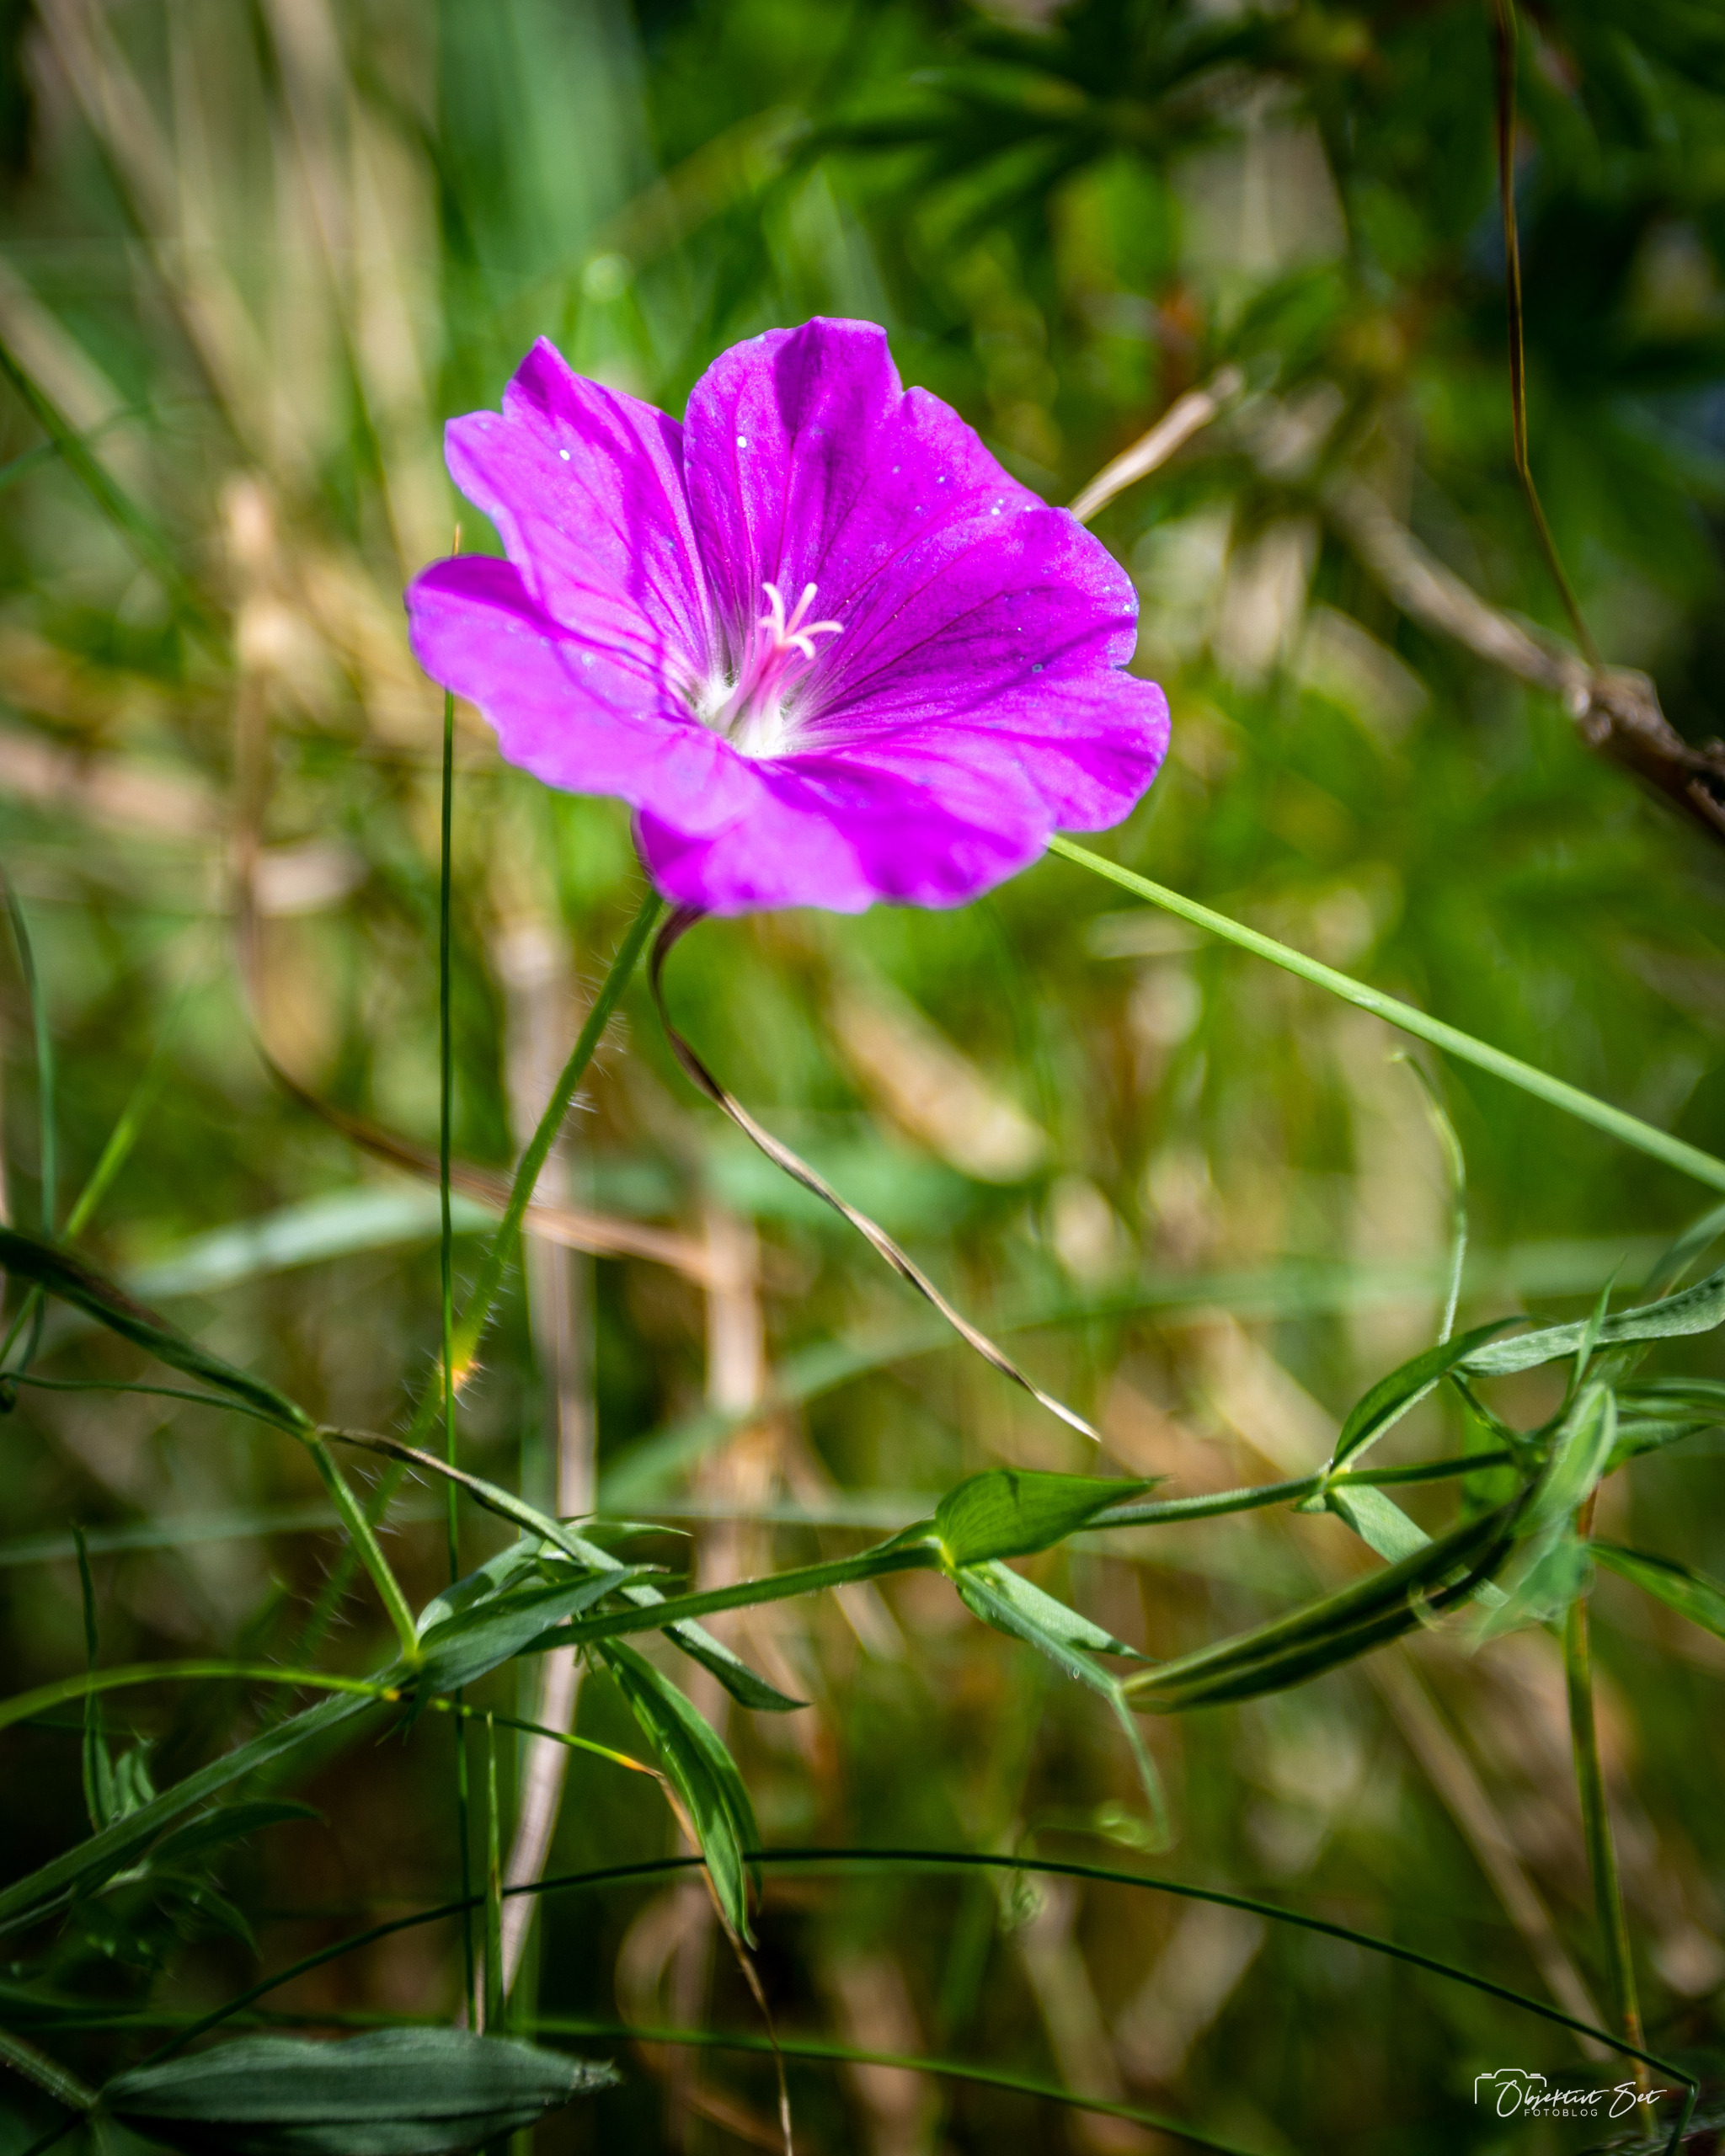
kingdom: Plantae
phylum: Tracheophyta
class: Magnoliopsida
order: Geraniales
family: Geraniaceae
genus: Geranium
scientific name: Geranium sanguineum
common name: Blodrød storkenæb
